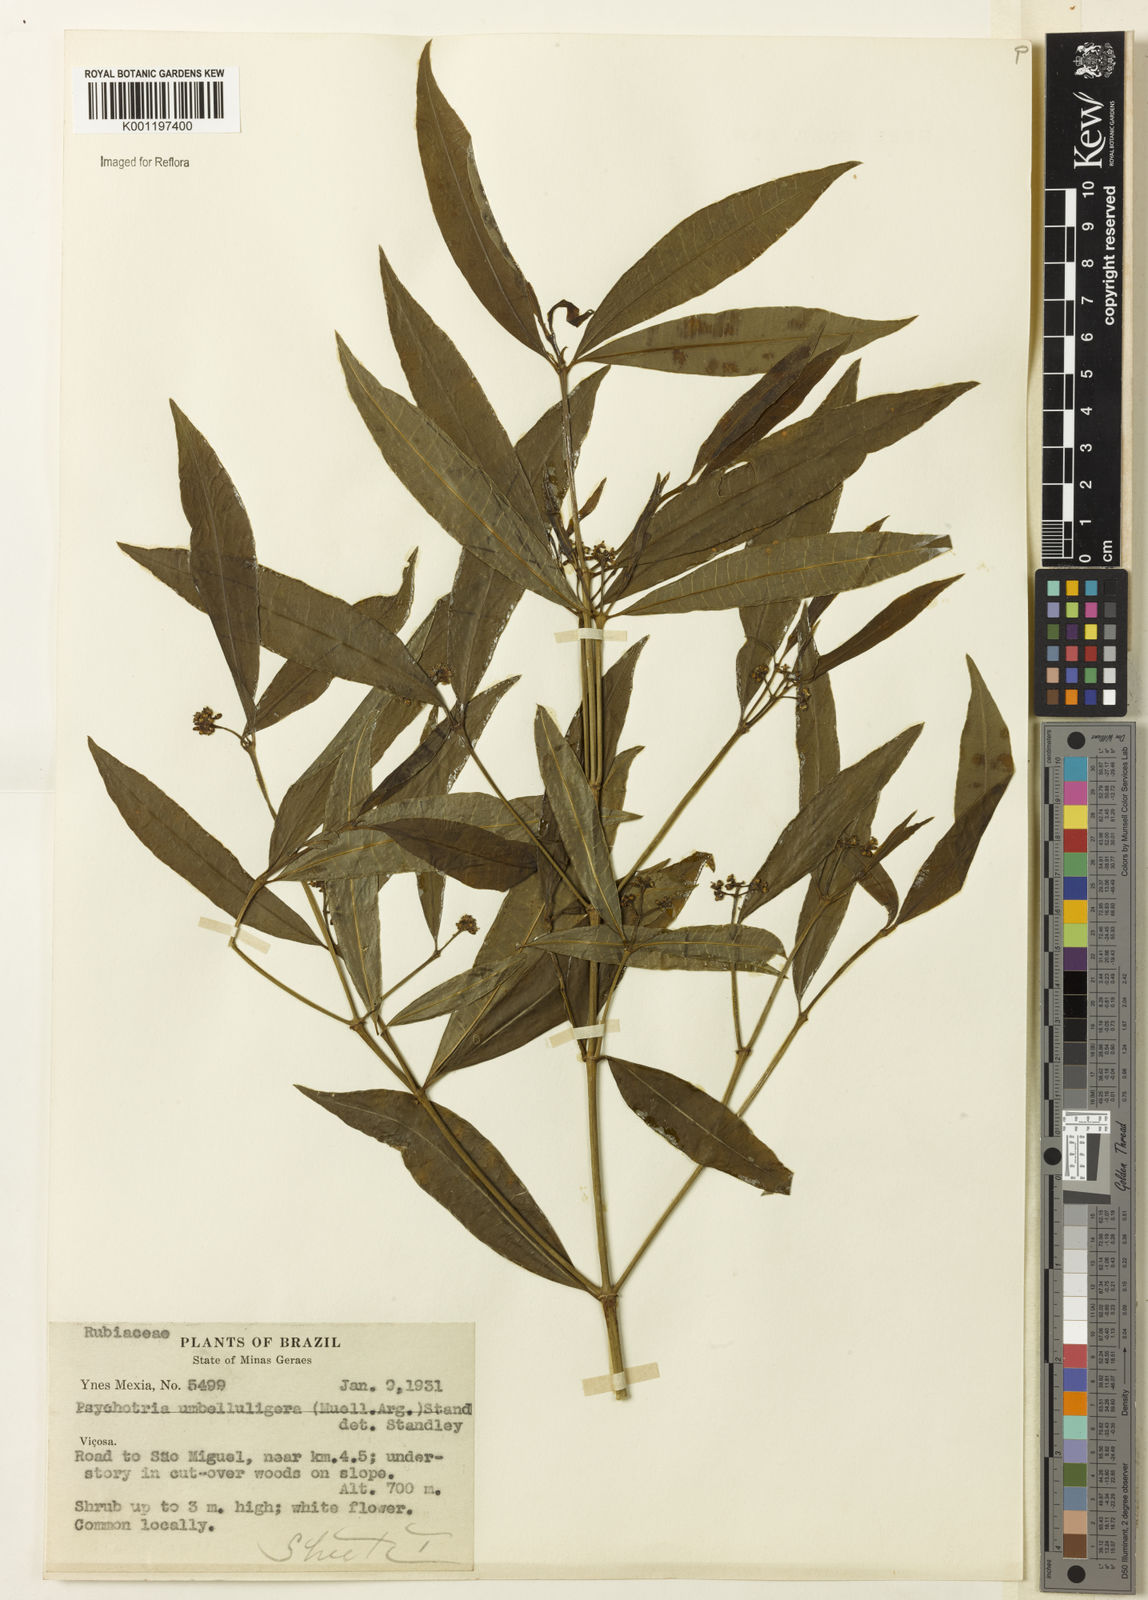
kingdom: Plantae
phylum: Tracheophyta
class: Magnoliopsida
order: Gentianales
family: Rubiaceae
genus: Psychotria
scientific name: Psychotria
